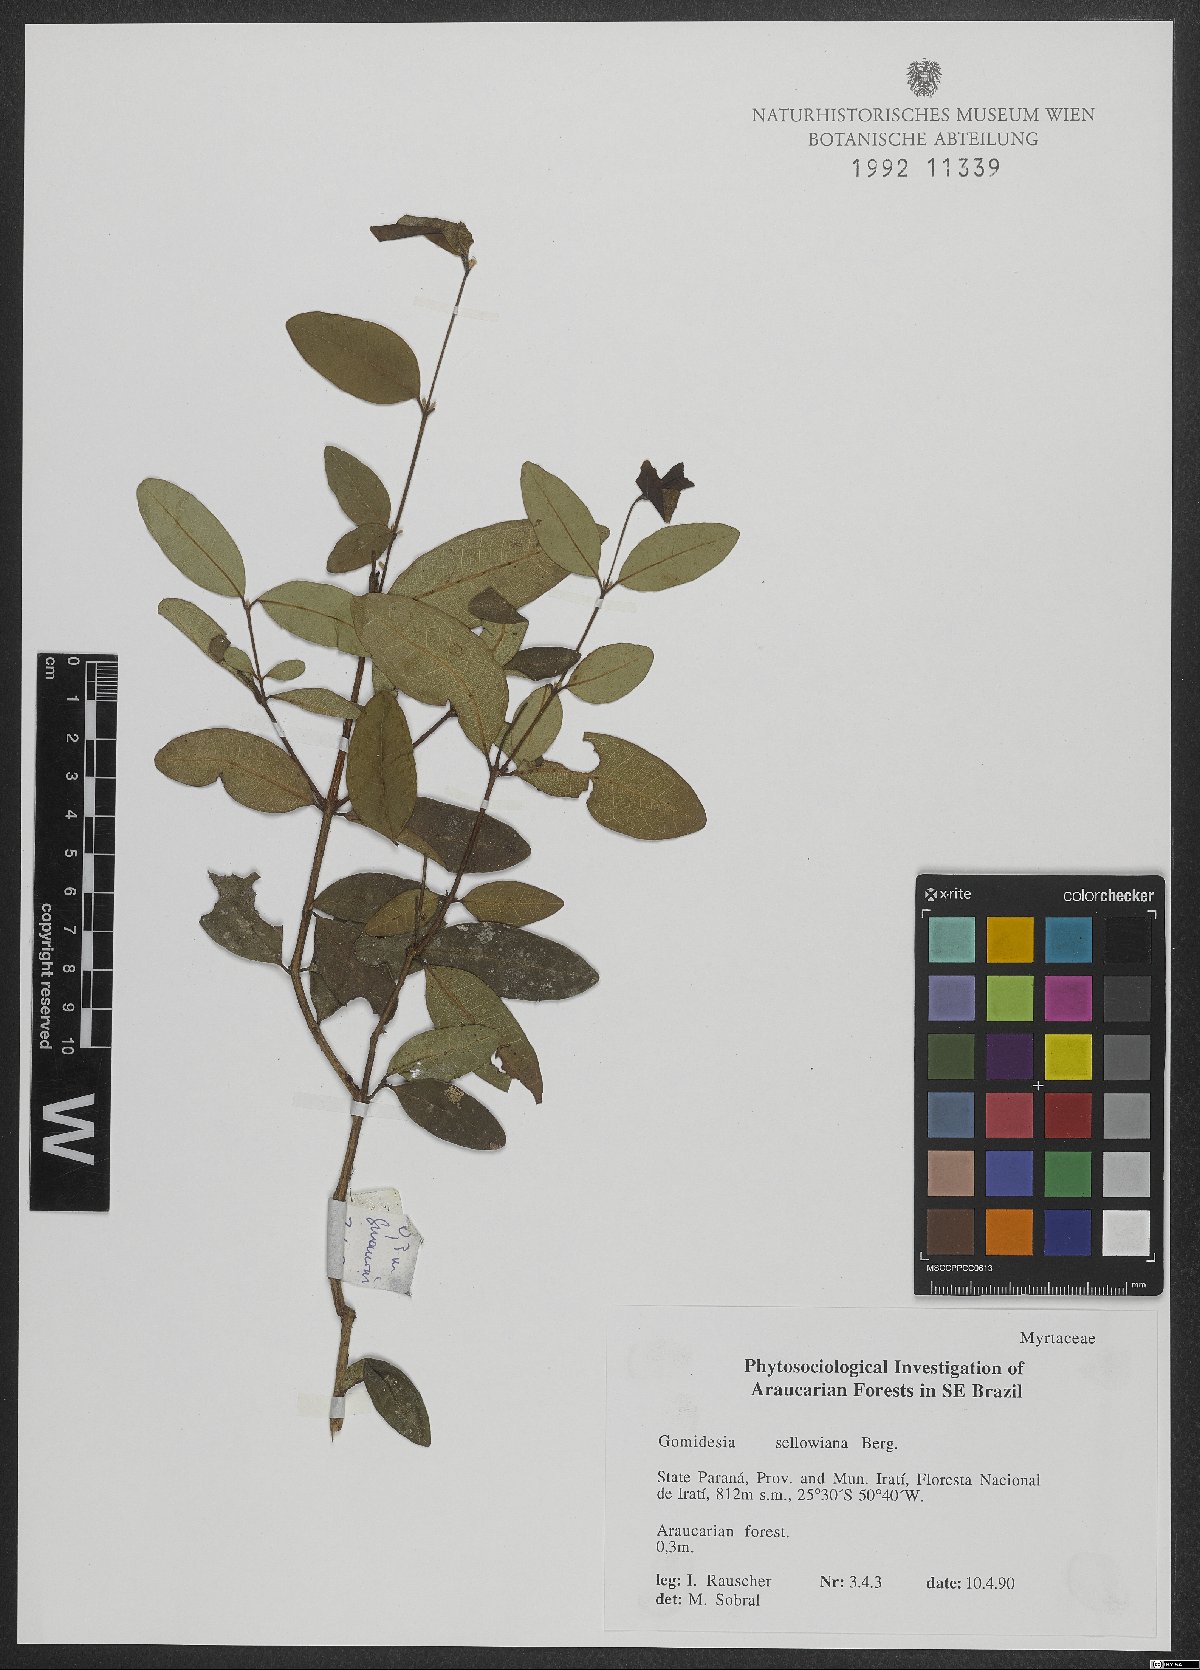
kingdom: Plantae
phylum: Tracheophyta
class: Magnoliopsida
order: Myrtales
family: Myrtaceae
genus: Myrcia
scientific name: Myrcia hartwegiana
